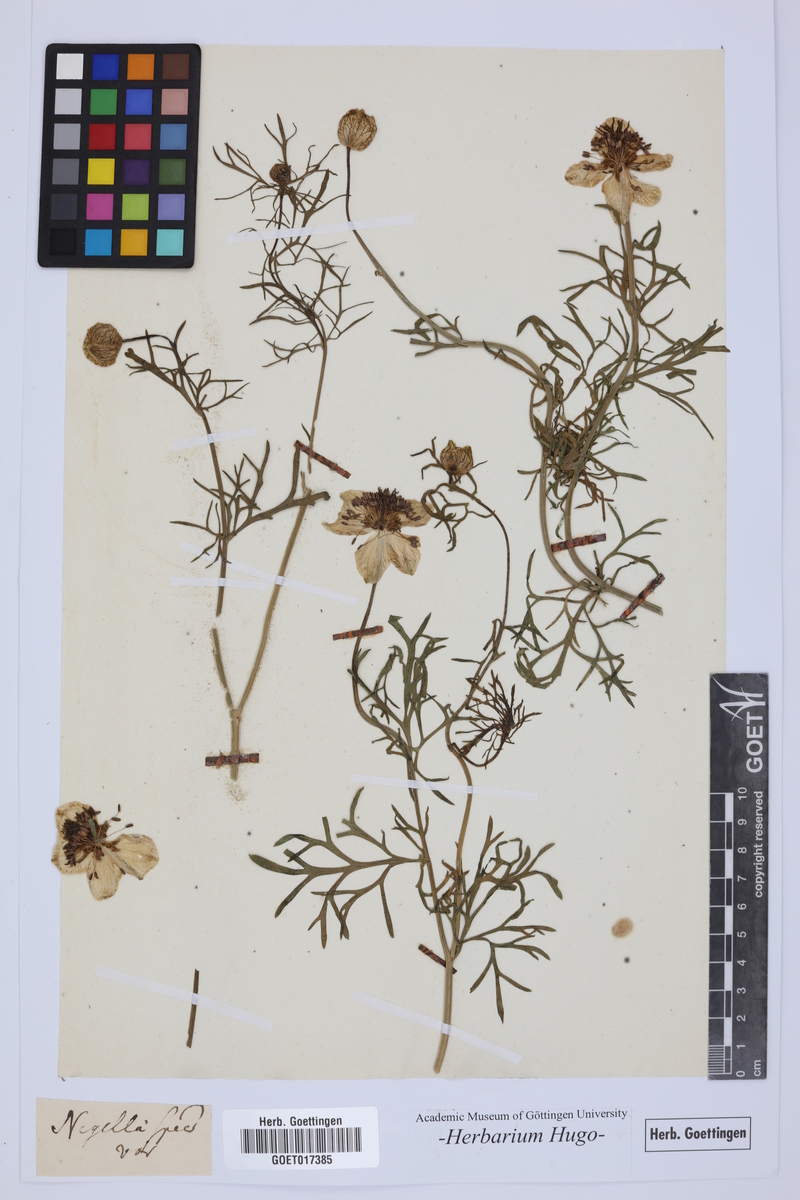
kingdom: Plantae
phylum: Tracheophyta
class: Magnoliopsida
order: Ranunculales
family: Ranunculaceae
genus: Nigella
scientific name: Nigella
